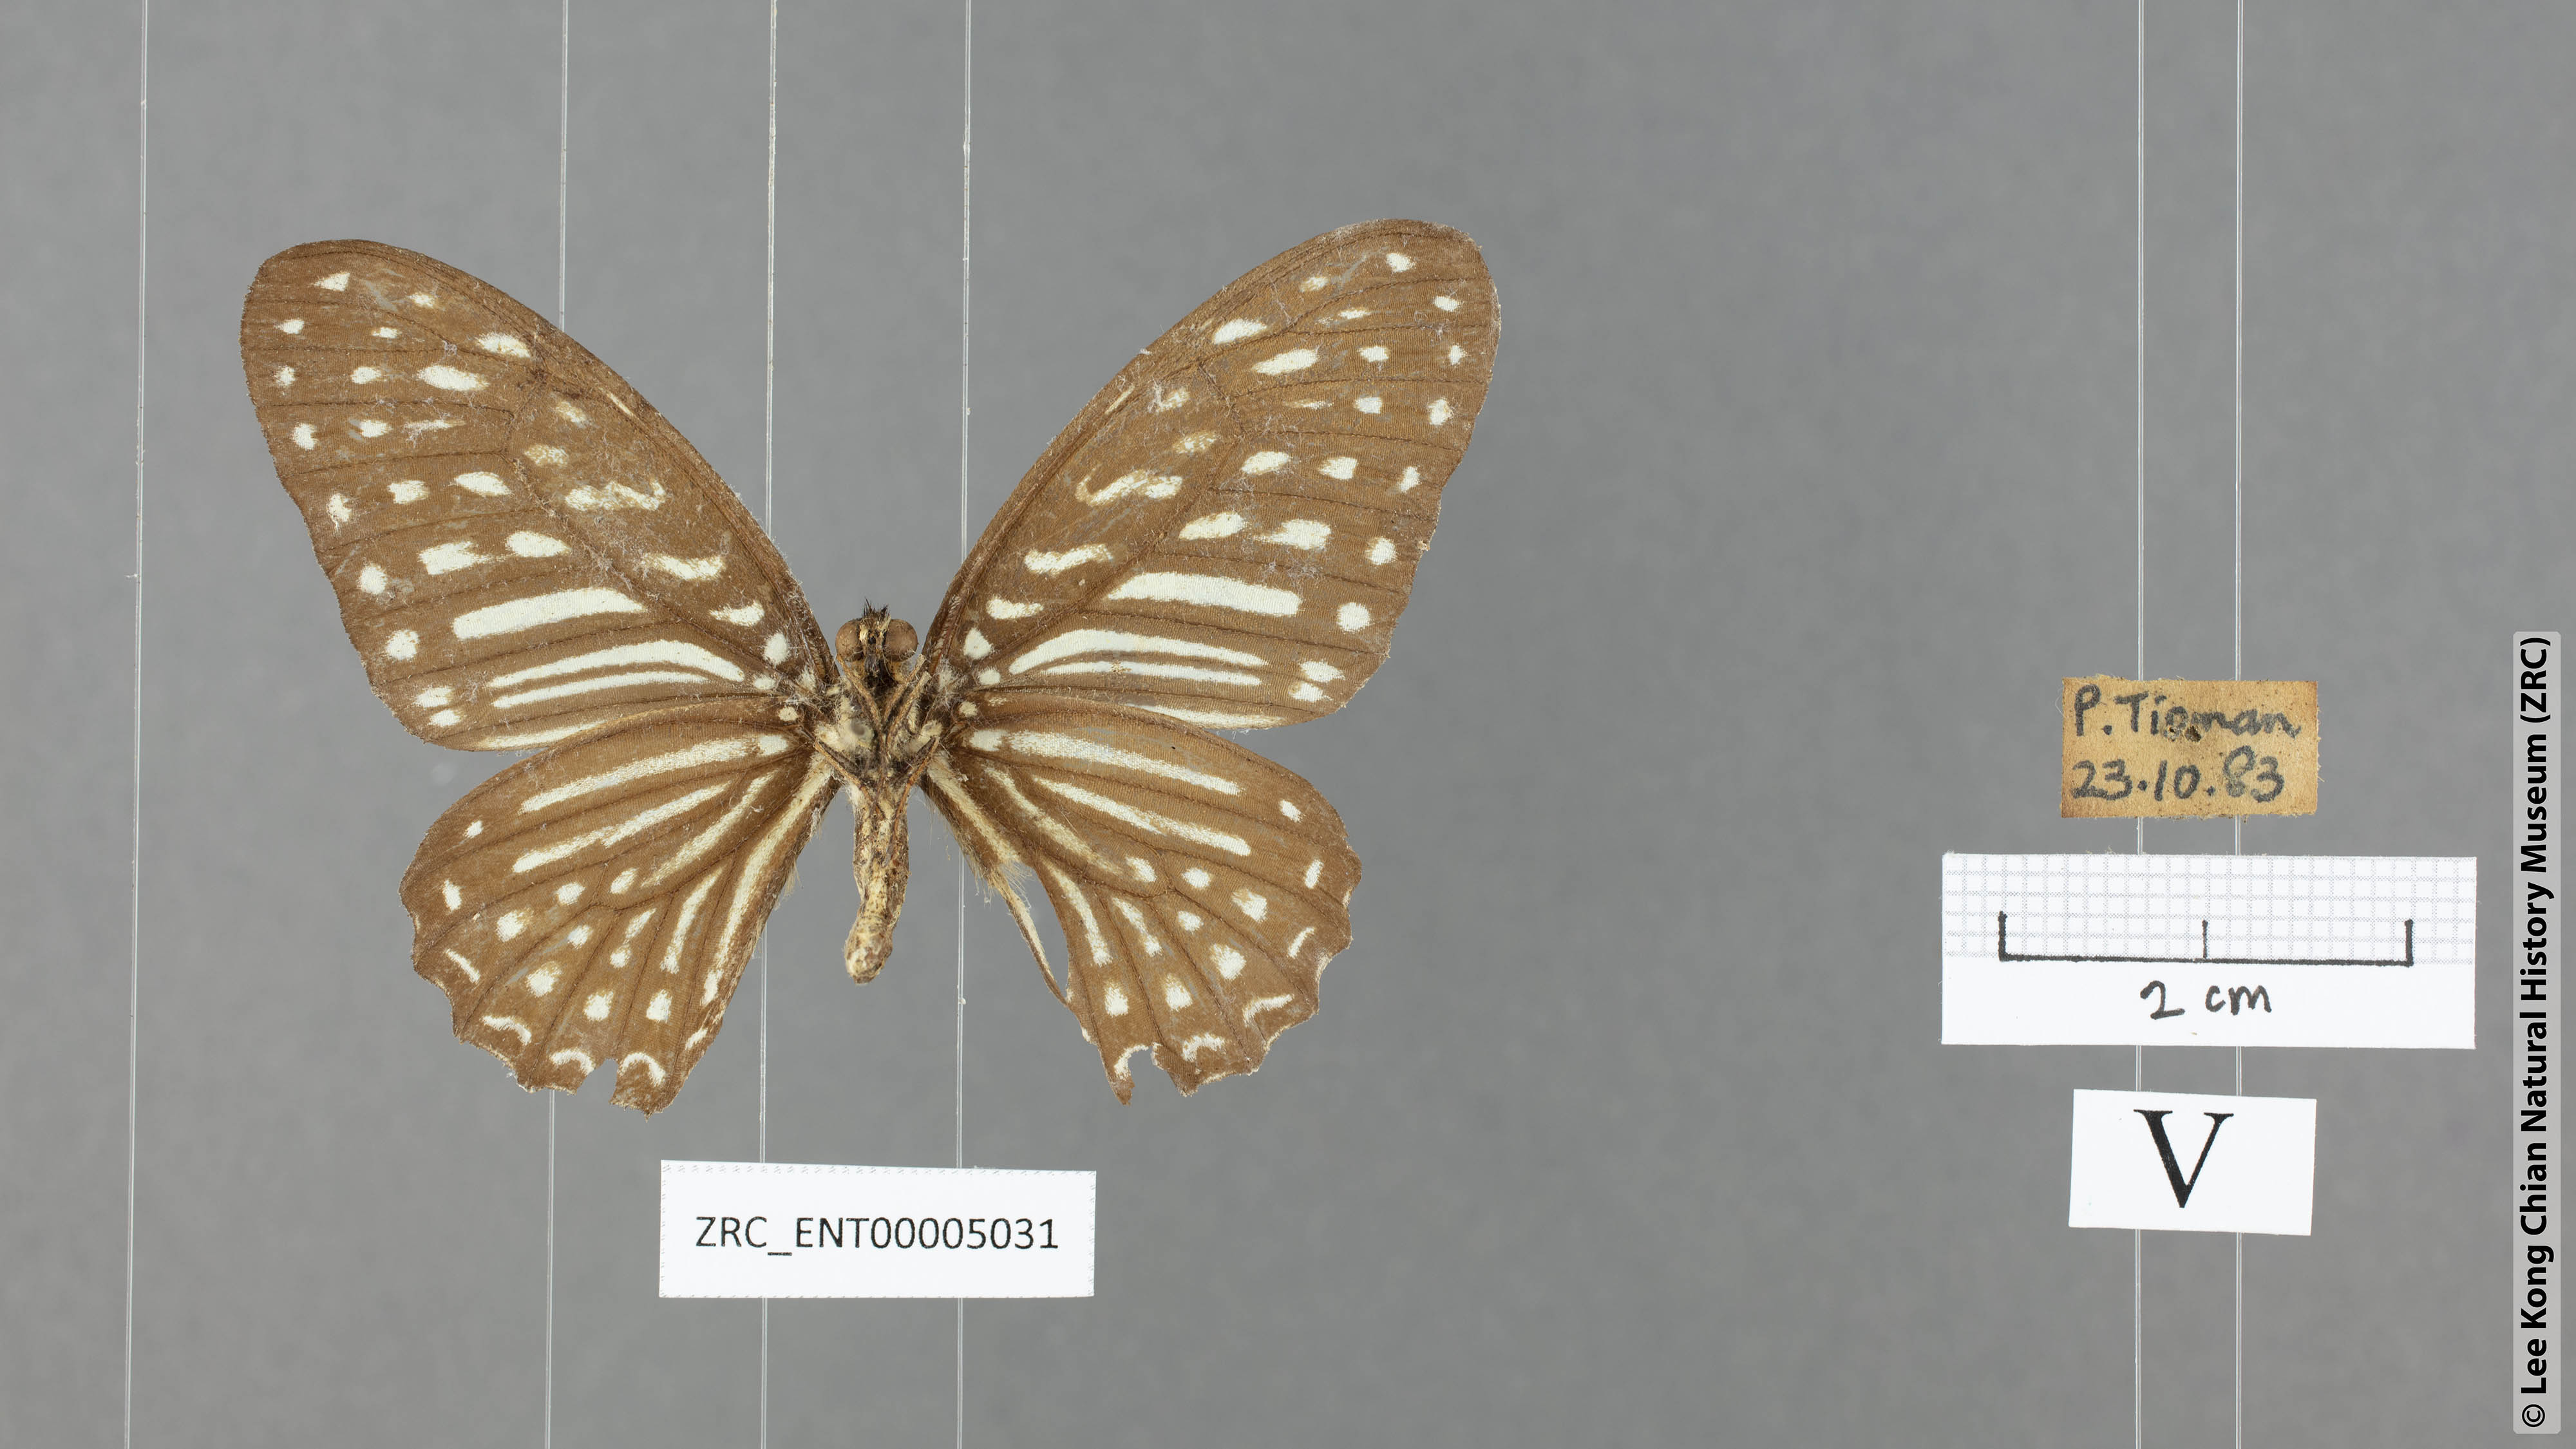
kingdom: Animalia
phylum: Arthropoda
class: Insecta
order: Lepidoptera
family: Papilionidae
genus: Graphium
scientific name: Graphium megarus
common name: Spotted zebra
